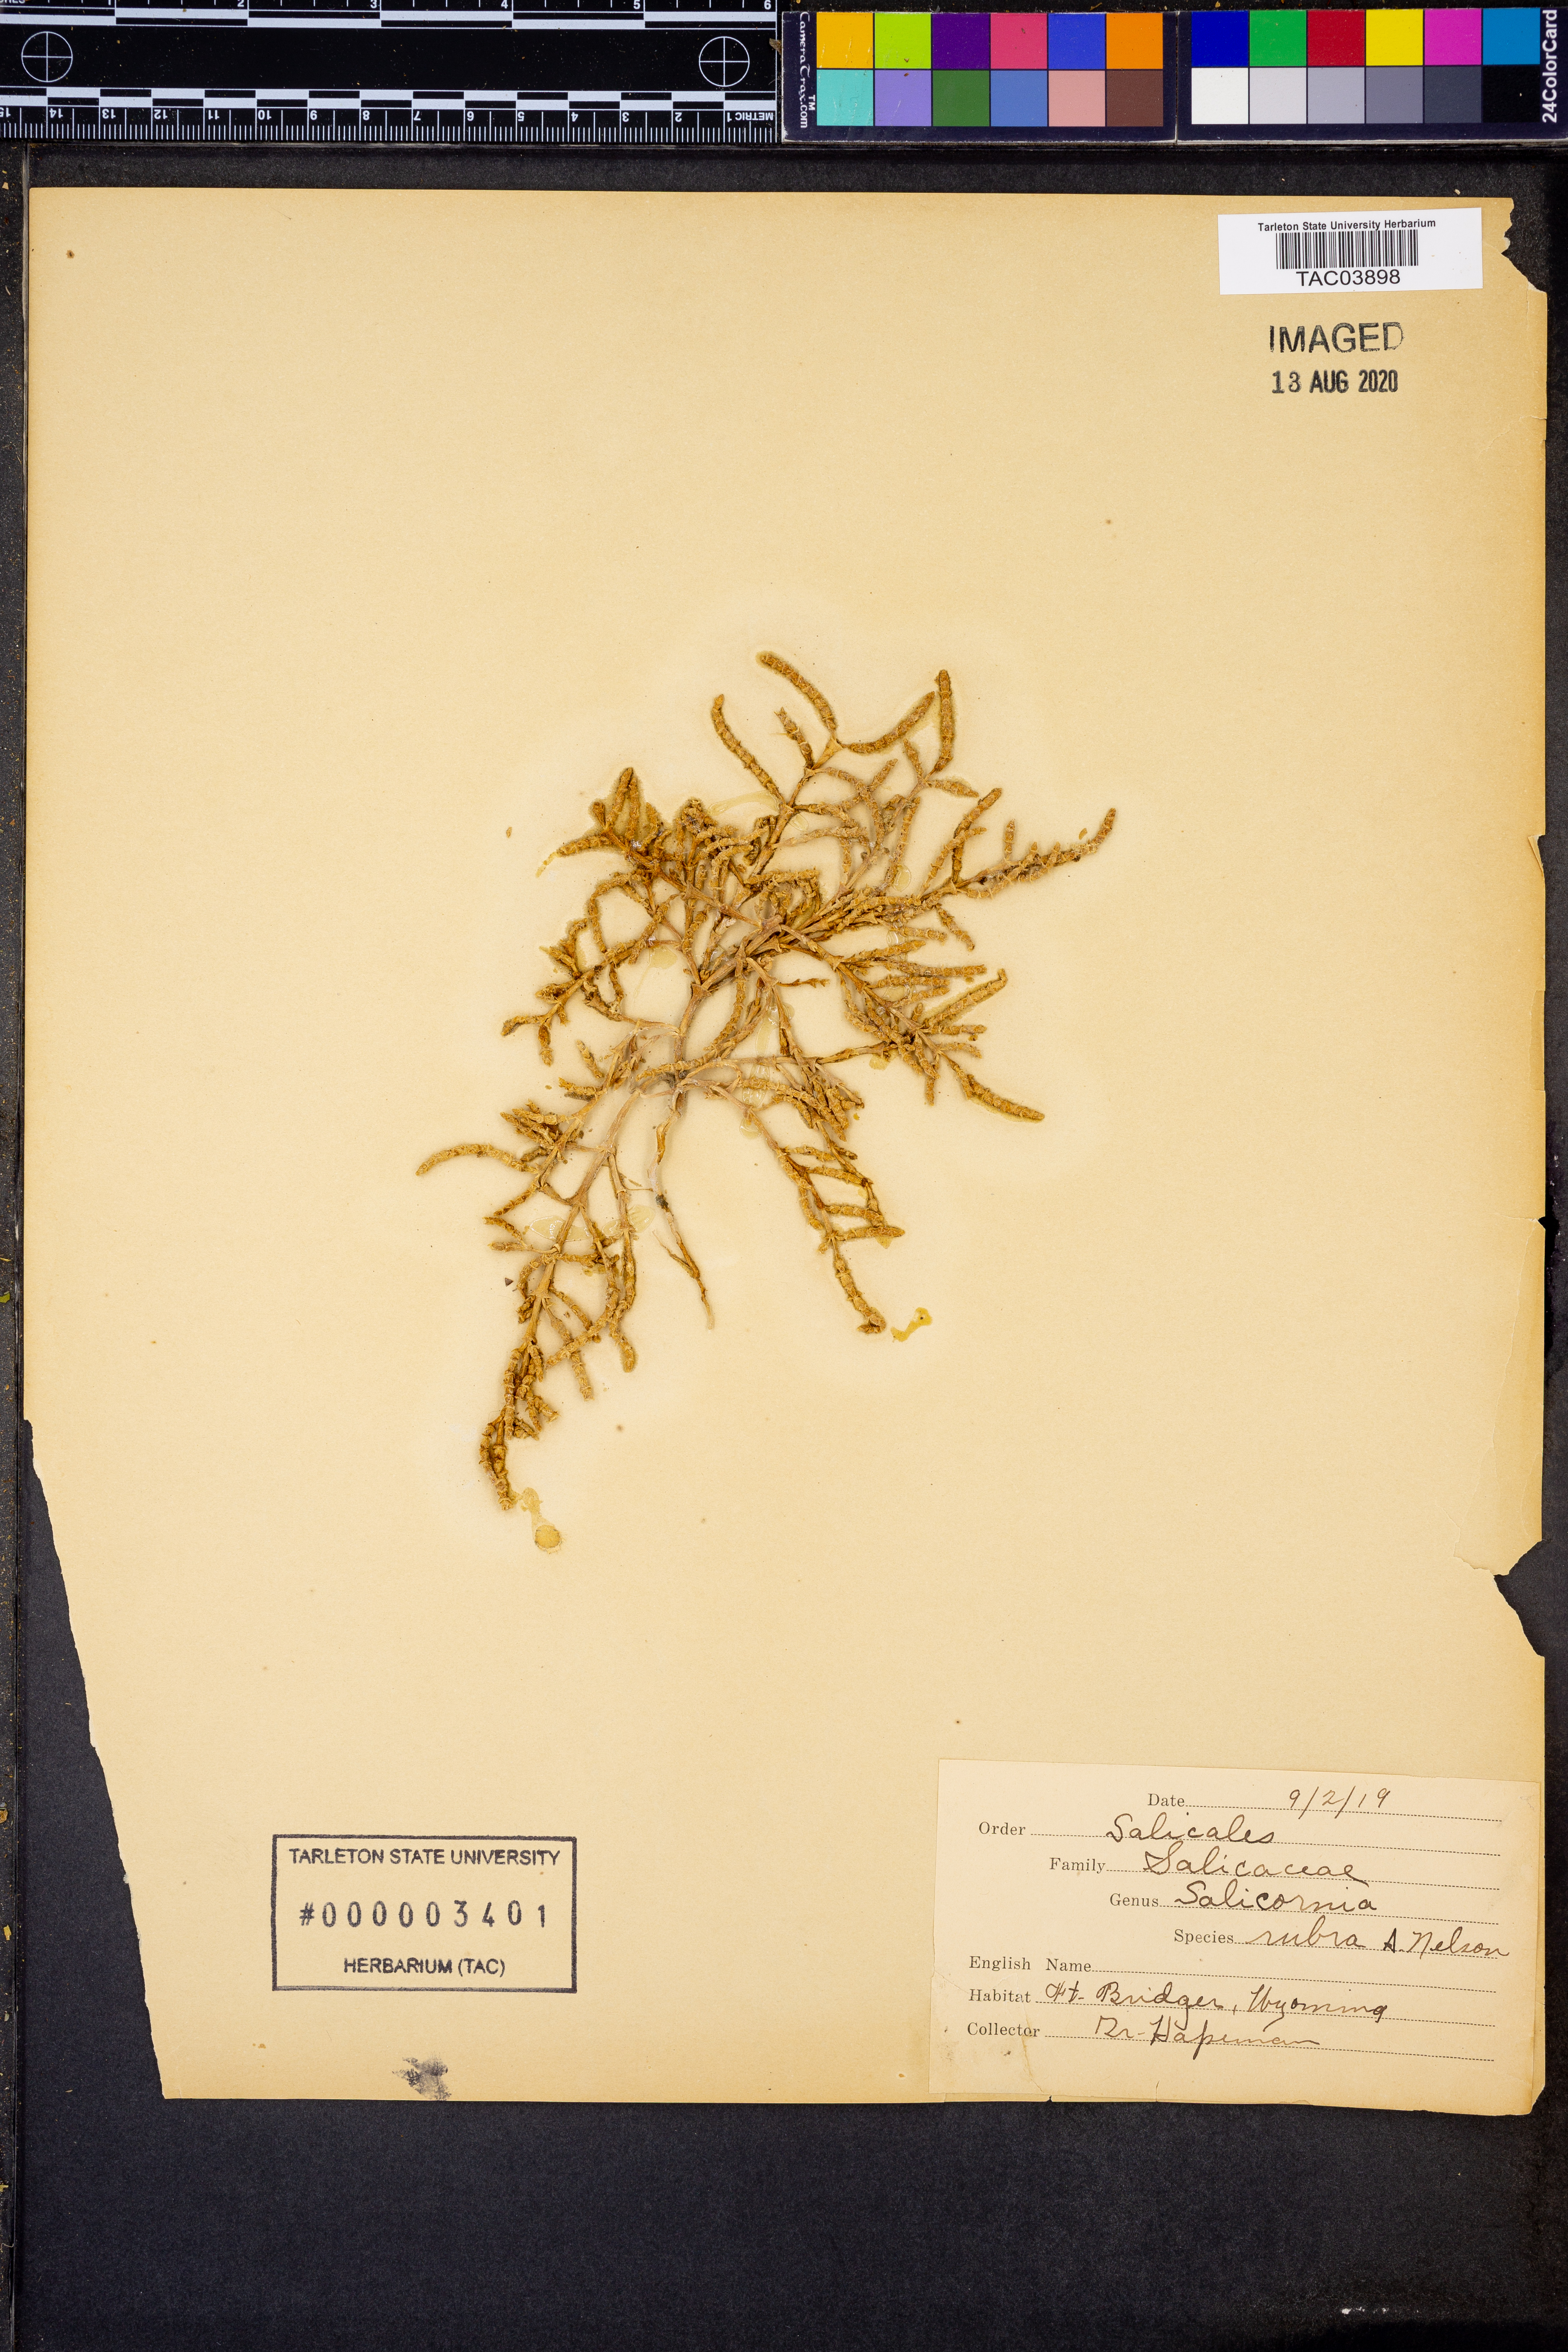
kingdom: Plantae
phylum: Tracheophyta
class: Magnoliopsida
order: Caryophyllales
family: Amaranthaceae
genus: Salicornia
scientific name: Salicornia rubra
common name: Red glasswort
